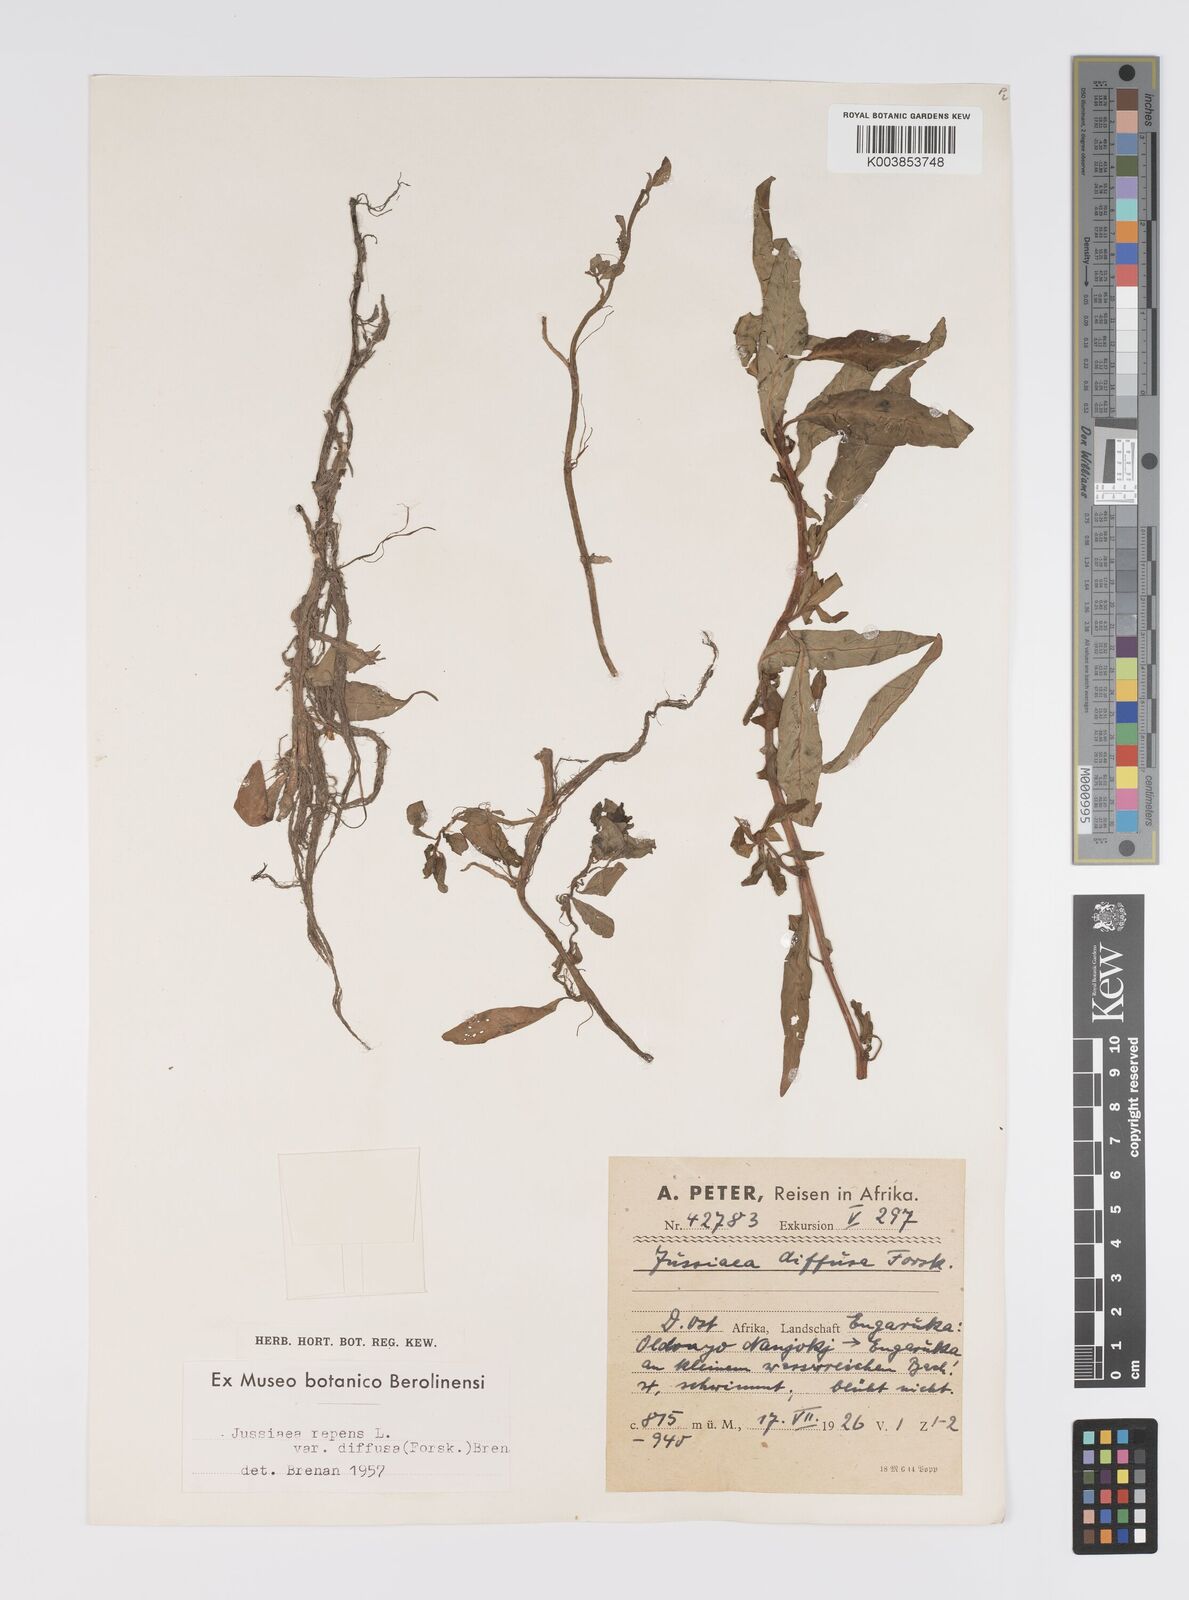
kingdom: Plantae
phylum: Tracheophyta
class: Magnoliopsida
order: Myrtales
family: Onagraceae
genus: Ludwigia
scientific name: Ludwigia adscendens
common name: Creeping water primrose
